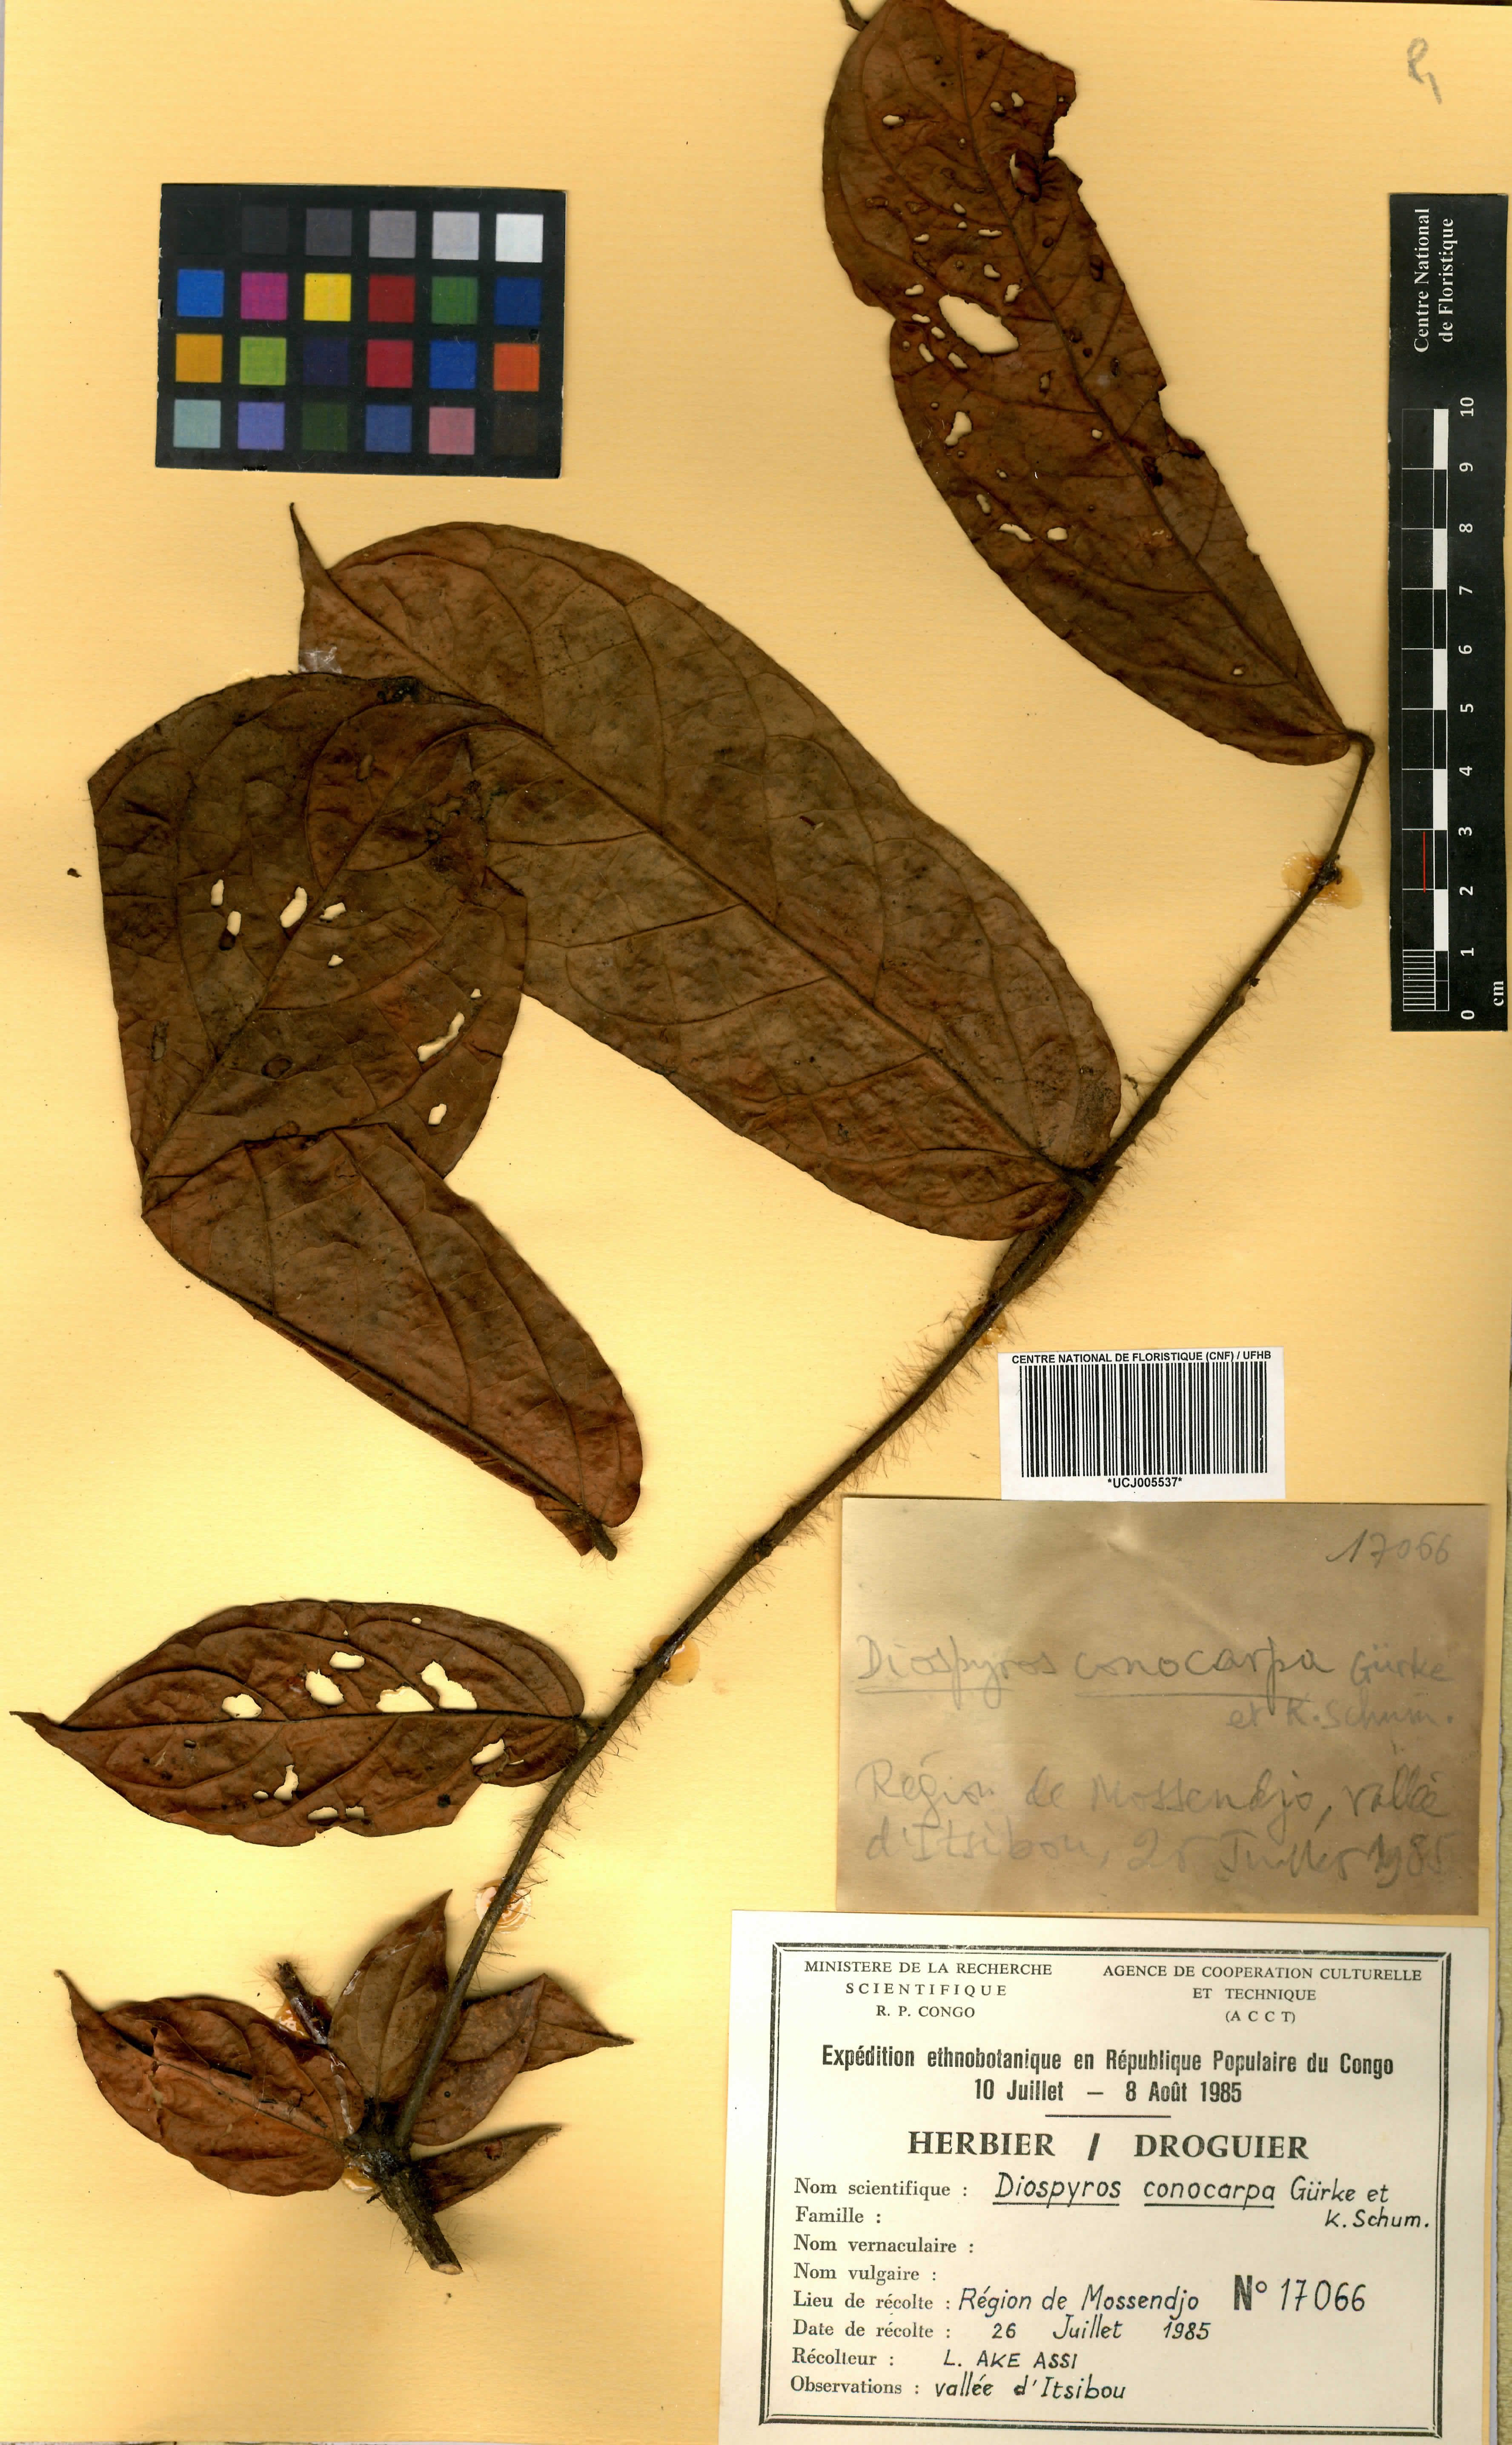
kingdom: Plantae
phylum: Tracheophyta
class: Magnoliopsida
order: Ericales
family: Ebenaceae
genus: Diospyros
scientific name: Diospyros conocarpa
